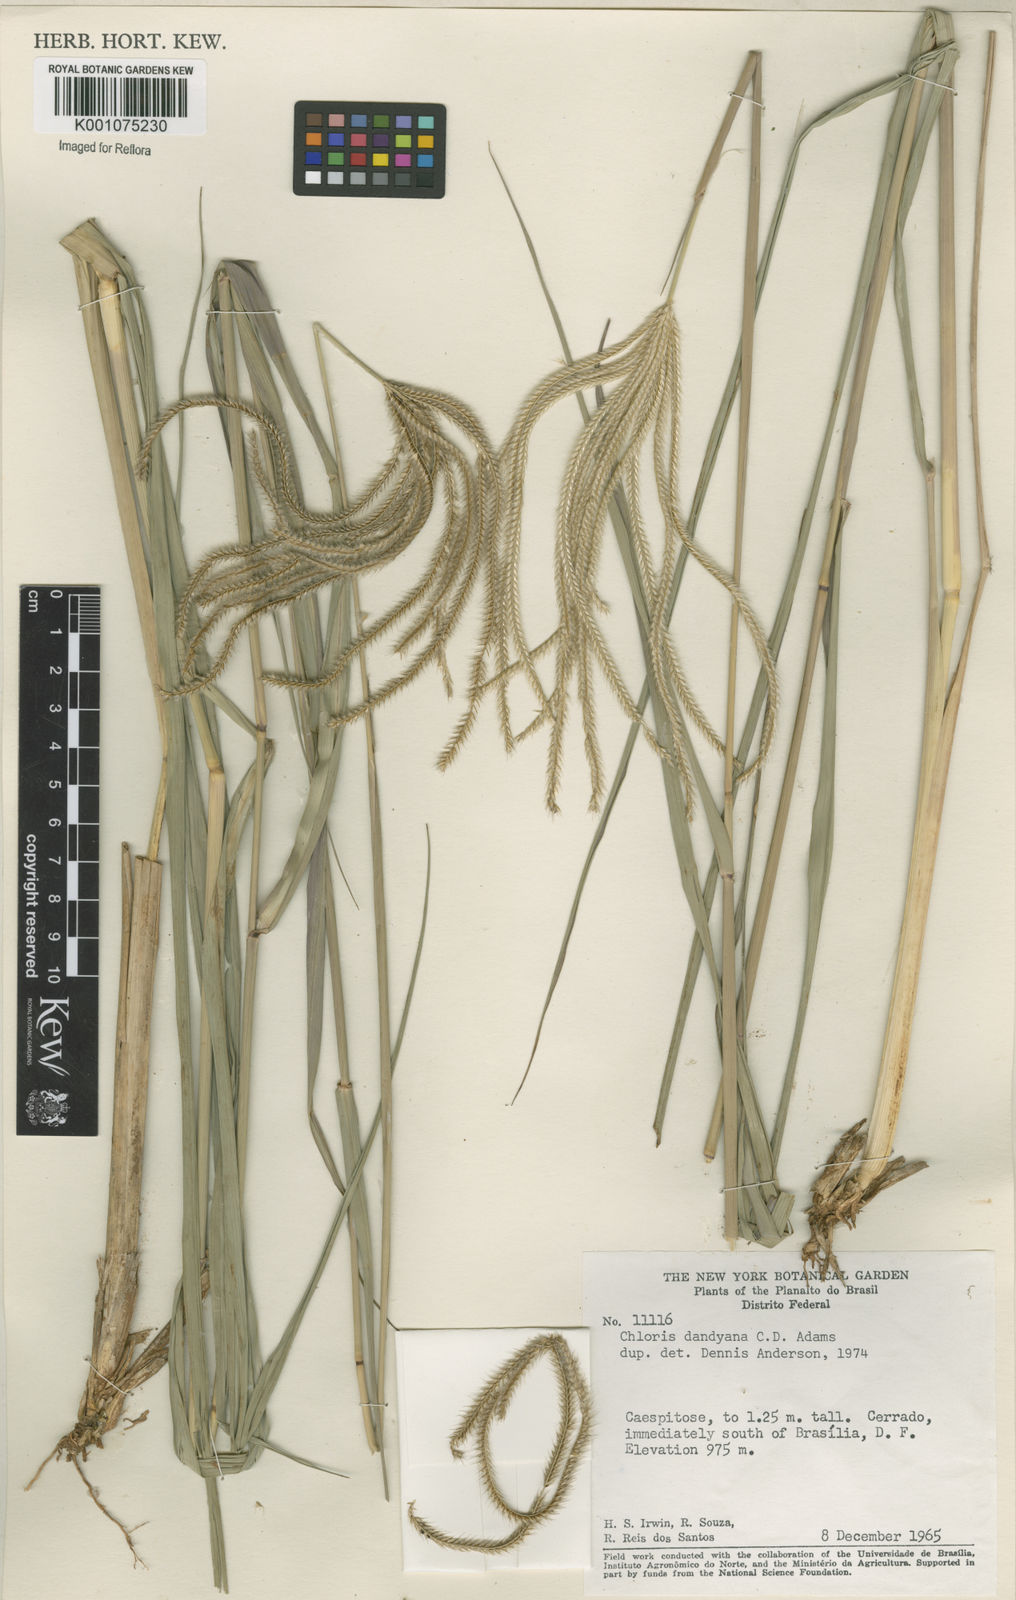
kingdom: Plantae
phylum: Tracheophyta
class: Liliopsida
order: Poales
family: Poaceae
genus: Stapfochloa
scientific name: Stapfochloa elata
